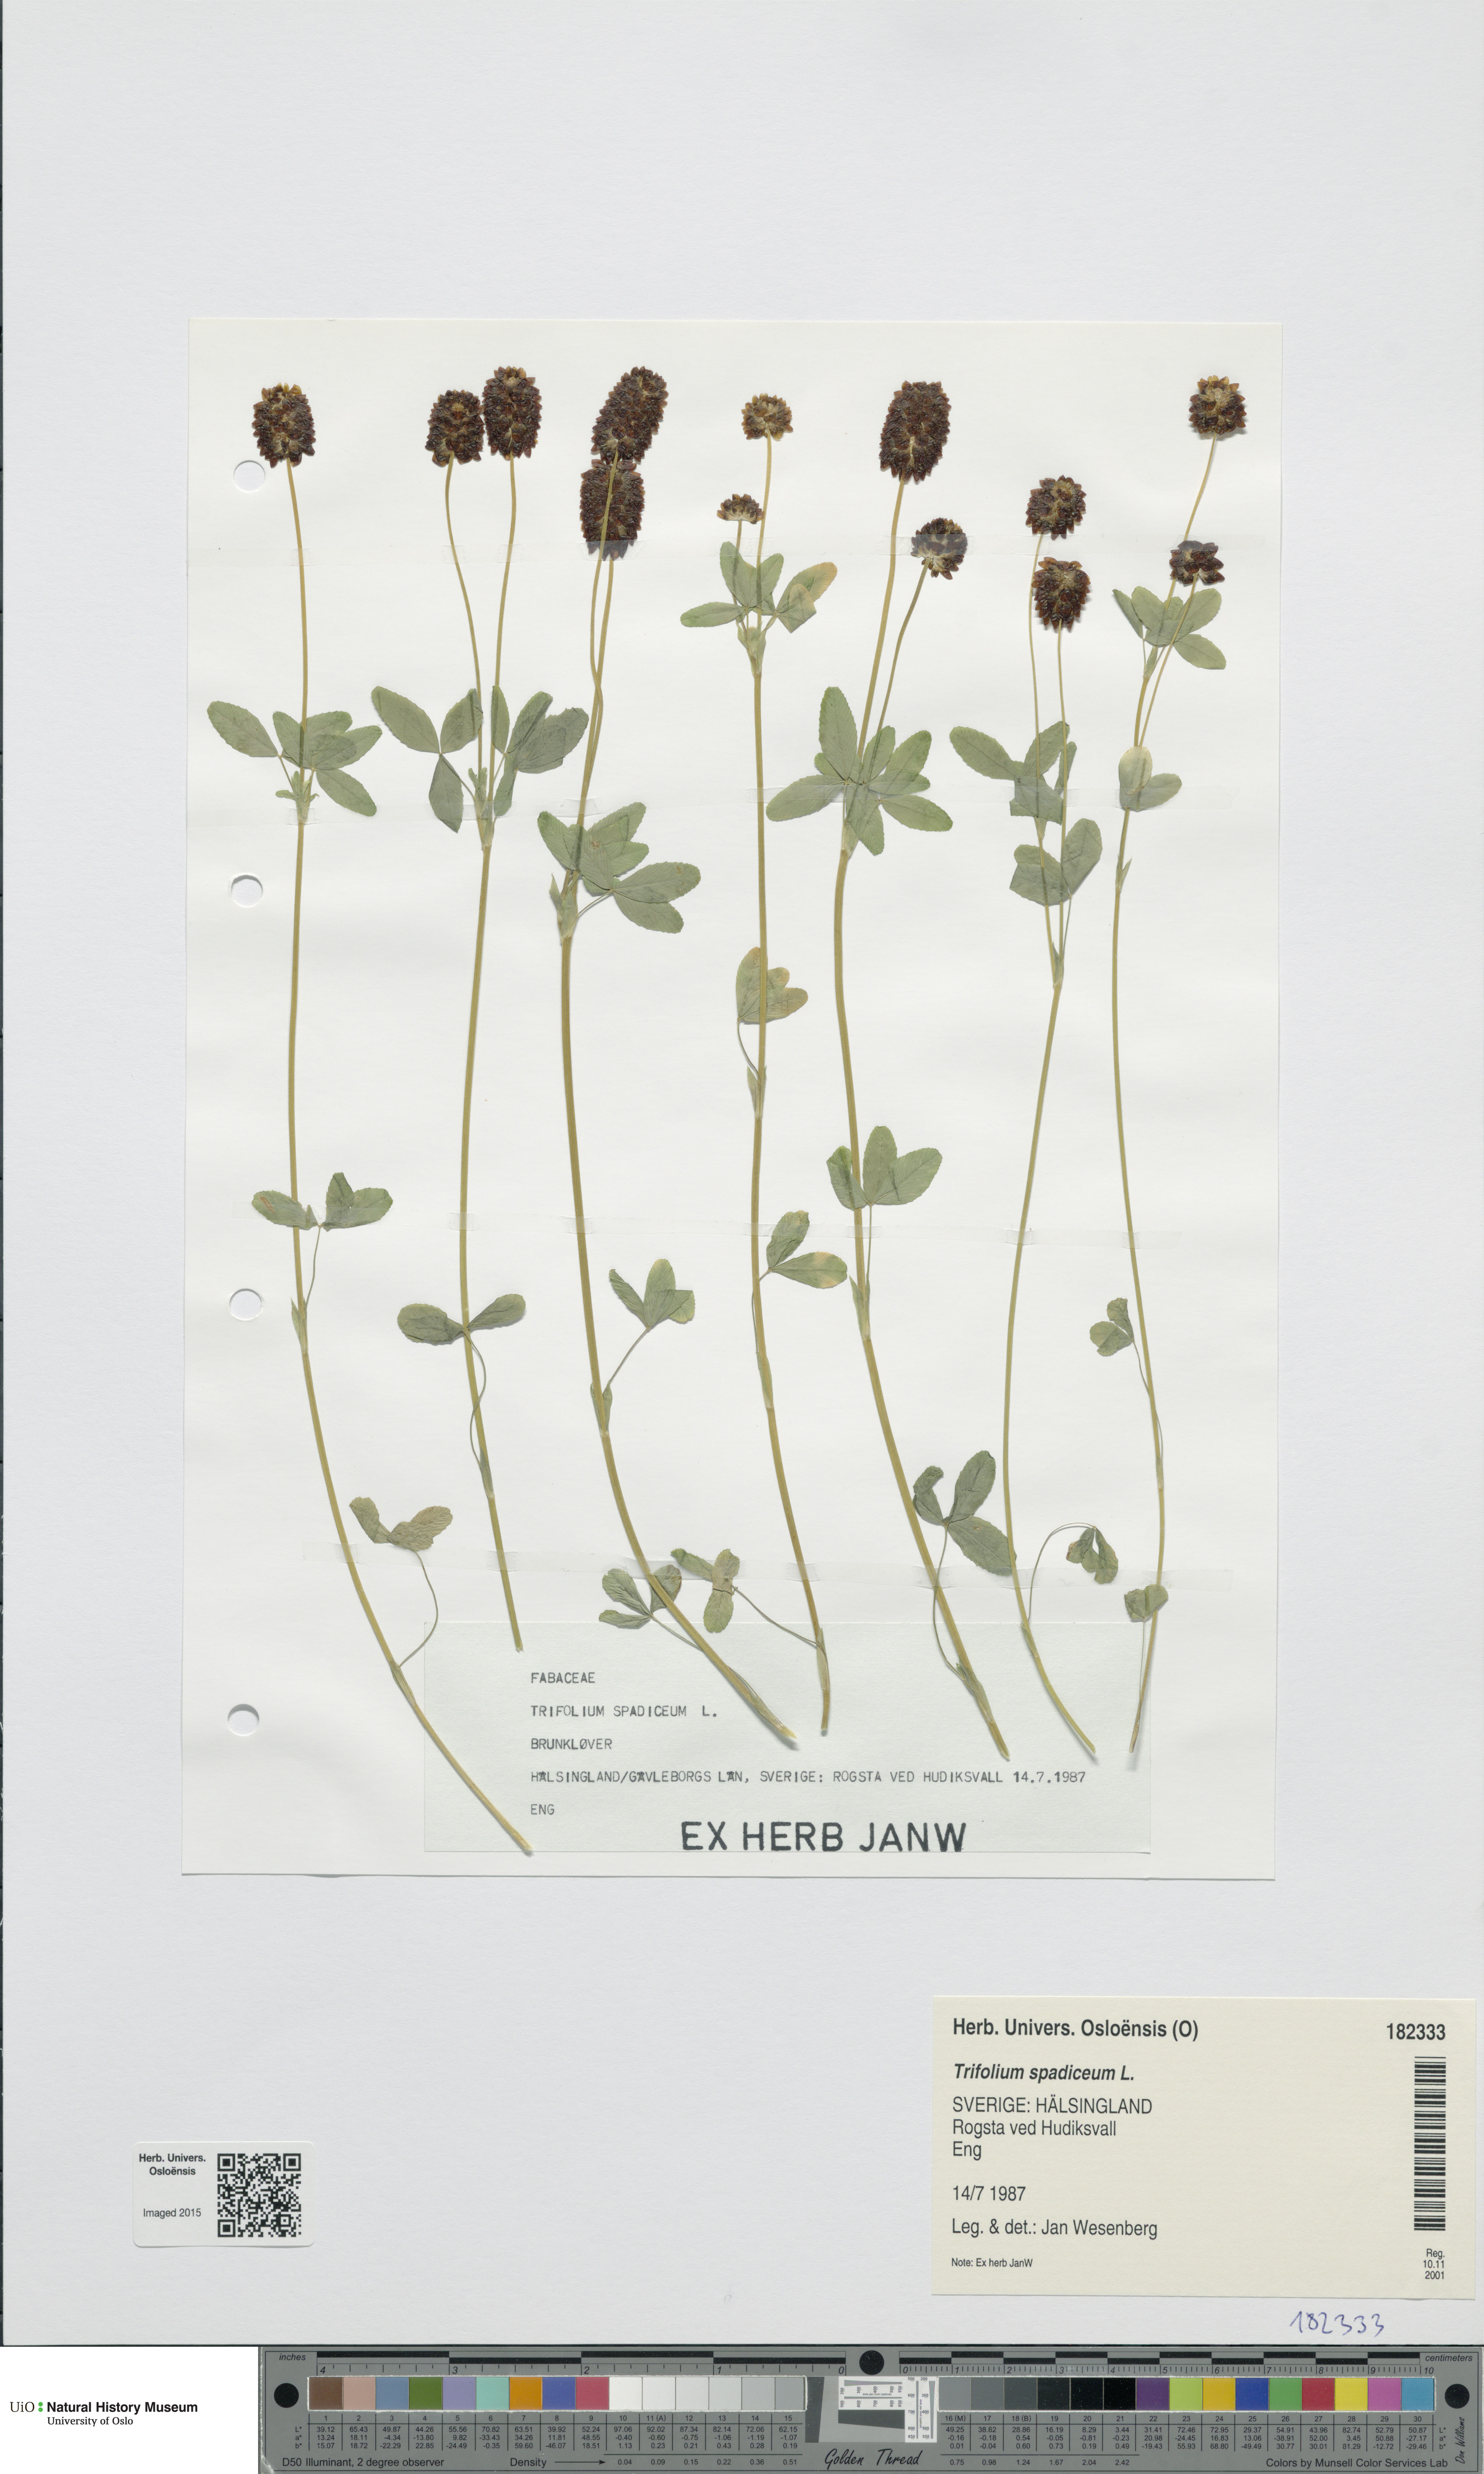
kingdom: Plantae
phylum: Tracheophyta
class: Magnoliopsida
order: Fabales
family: Fabaceae
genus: Trifolium
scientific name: Trifolium spadiceum
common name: Brown moor clover
